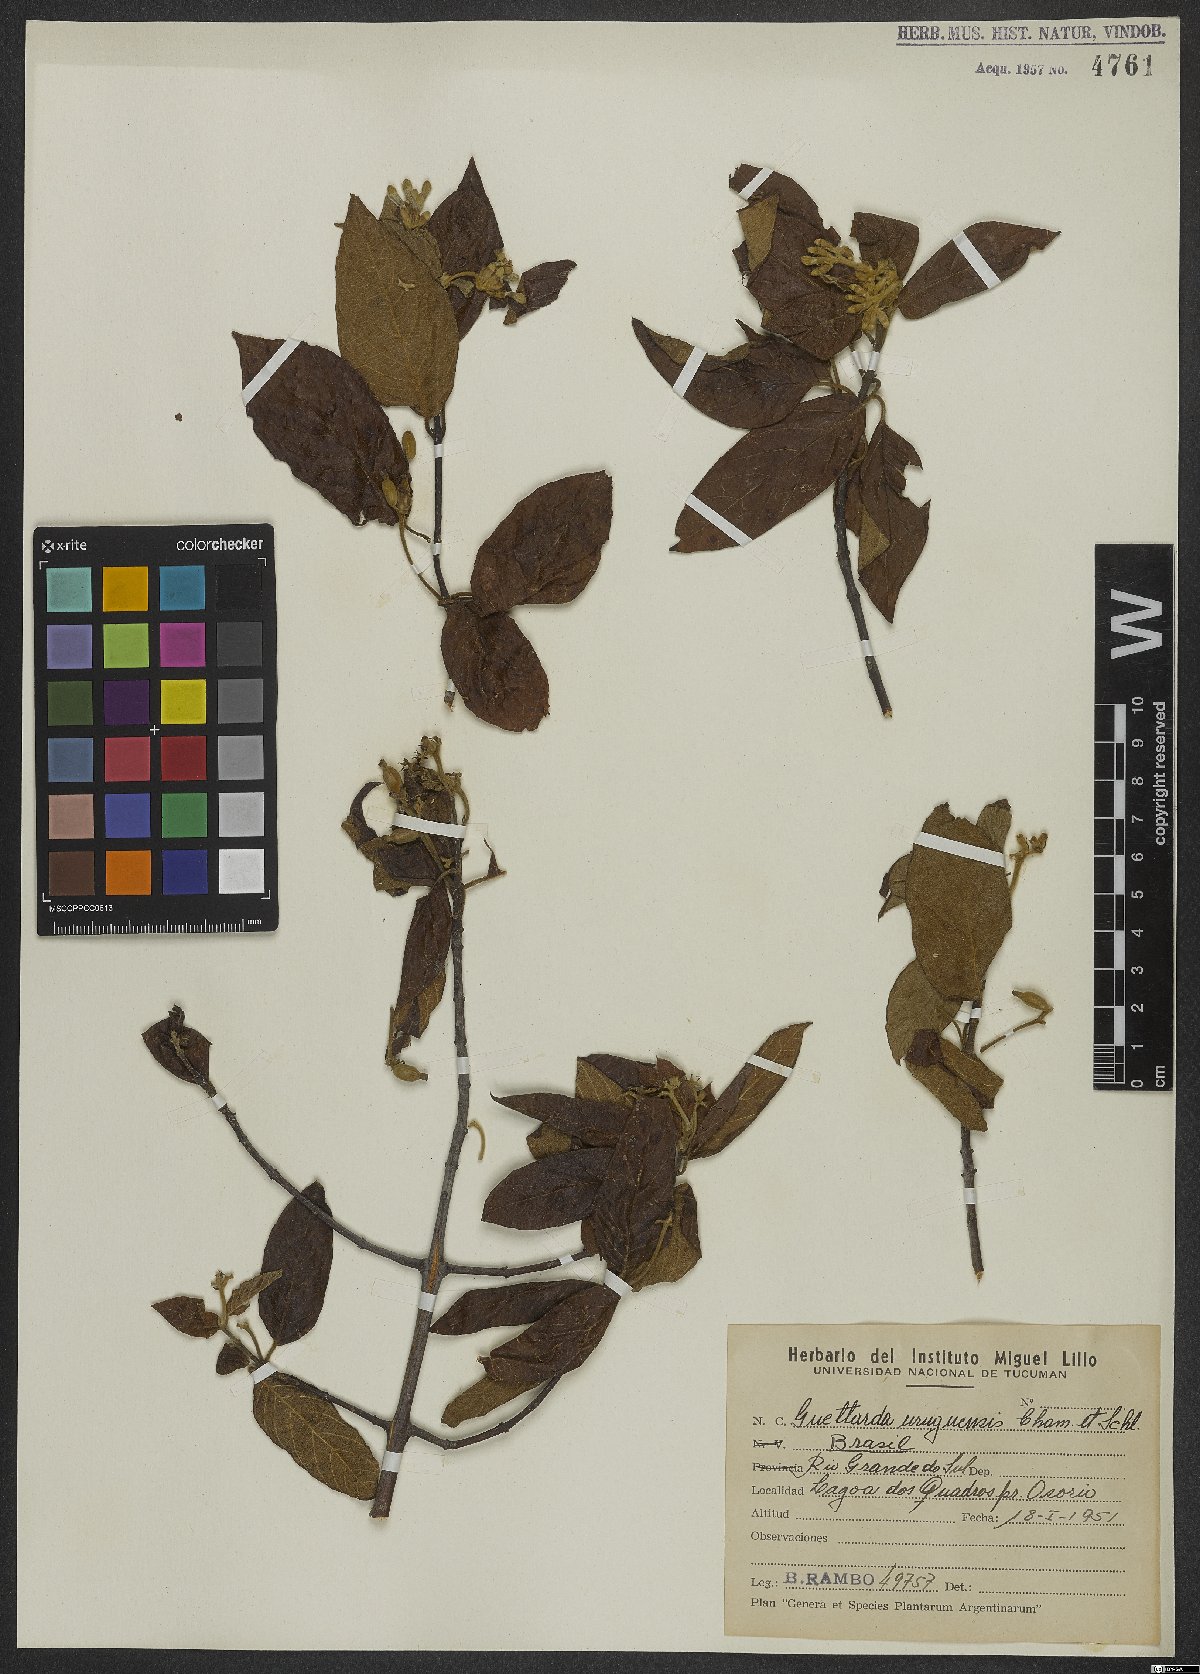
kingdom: Plantae
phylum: Tracheophyta
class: Magnoliopsida
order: Gentianales
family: Rubiaceae
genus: Guettarda
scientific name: Guettarda uruguensis
